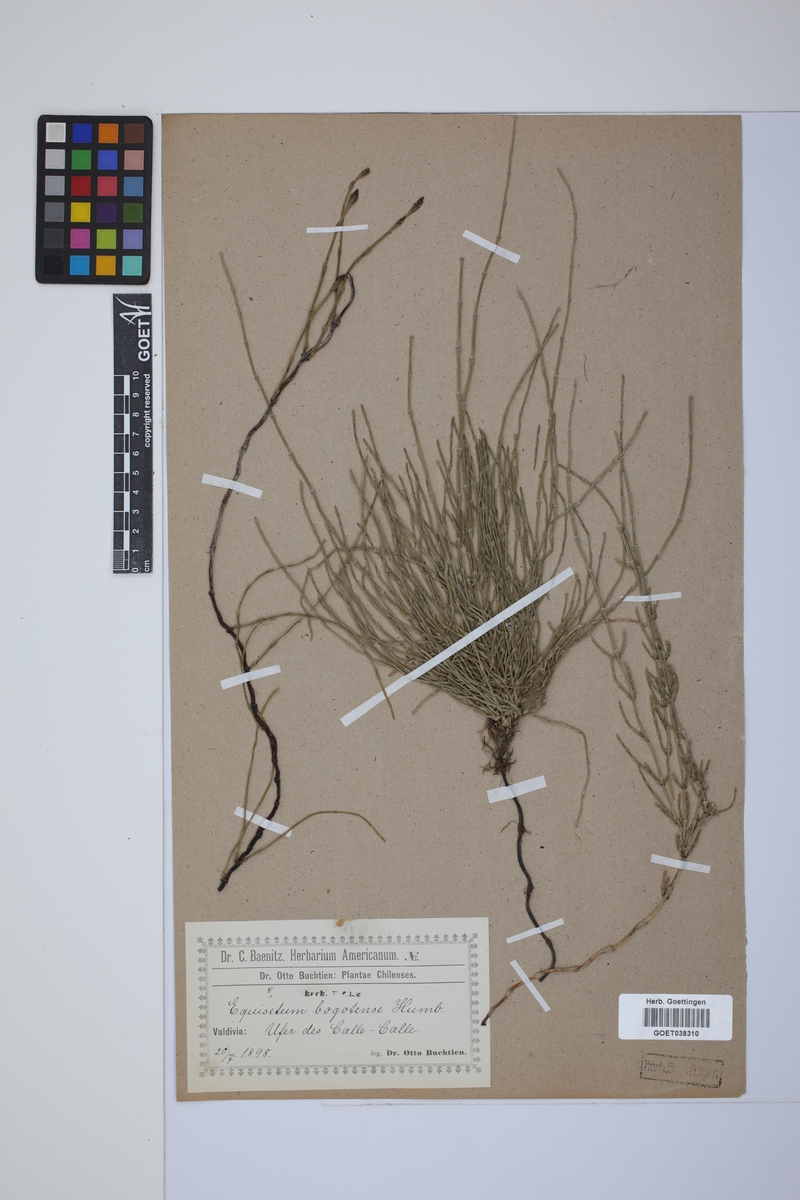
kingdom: Plantae
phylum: Tracheophyta
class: Polypodiopsida
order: Equisetales
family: Equisetaceae
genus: Equisetum
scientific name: Equisetum bogotense
